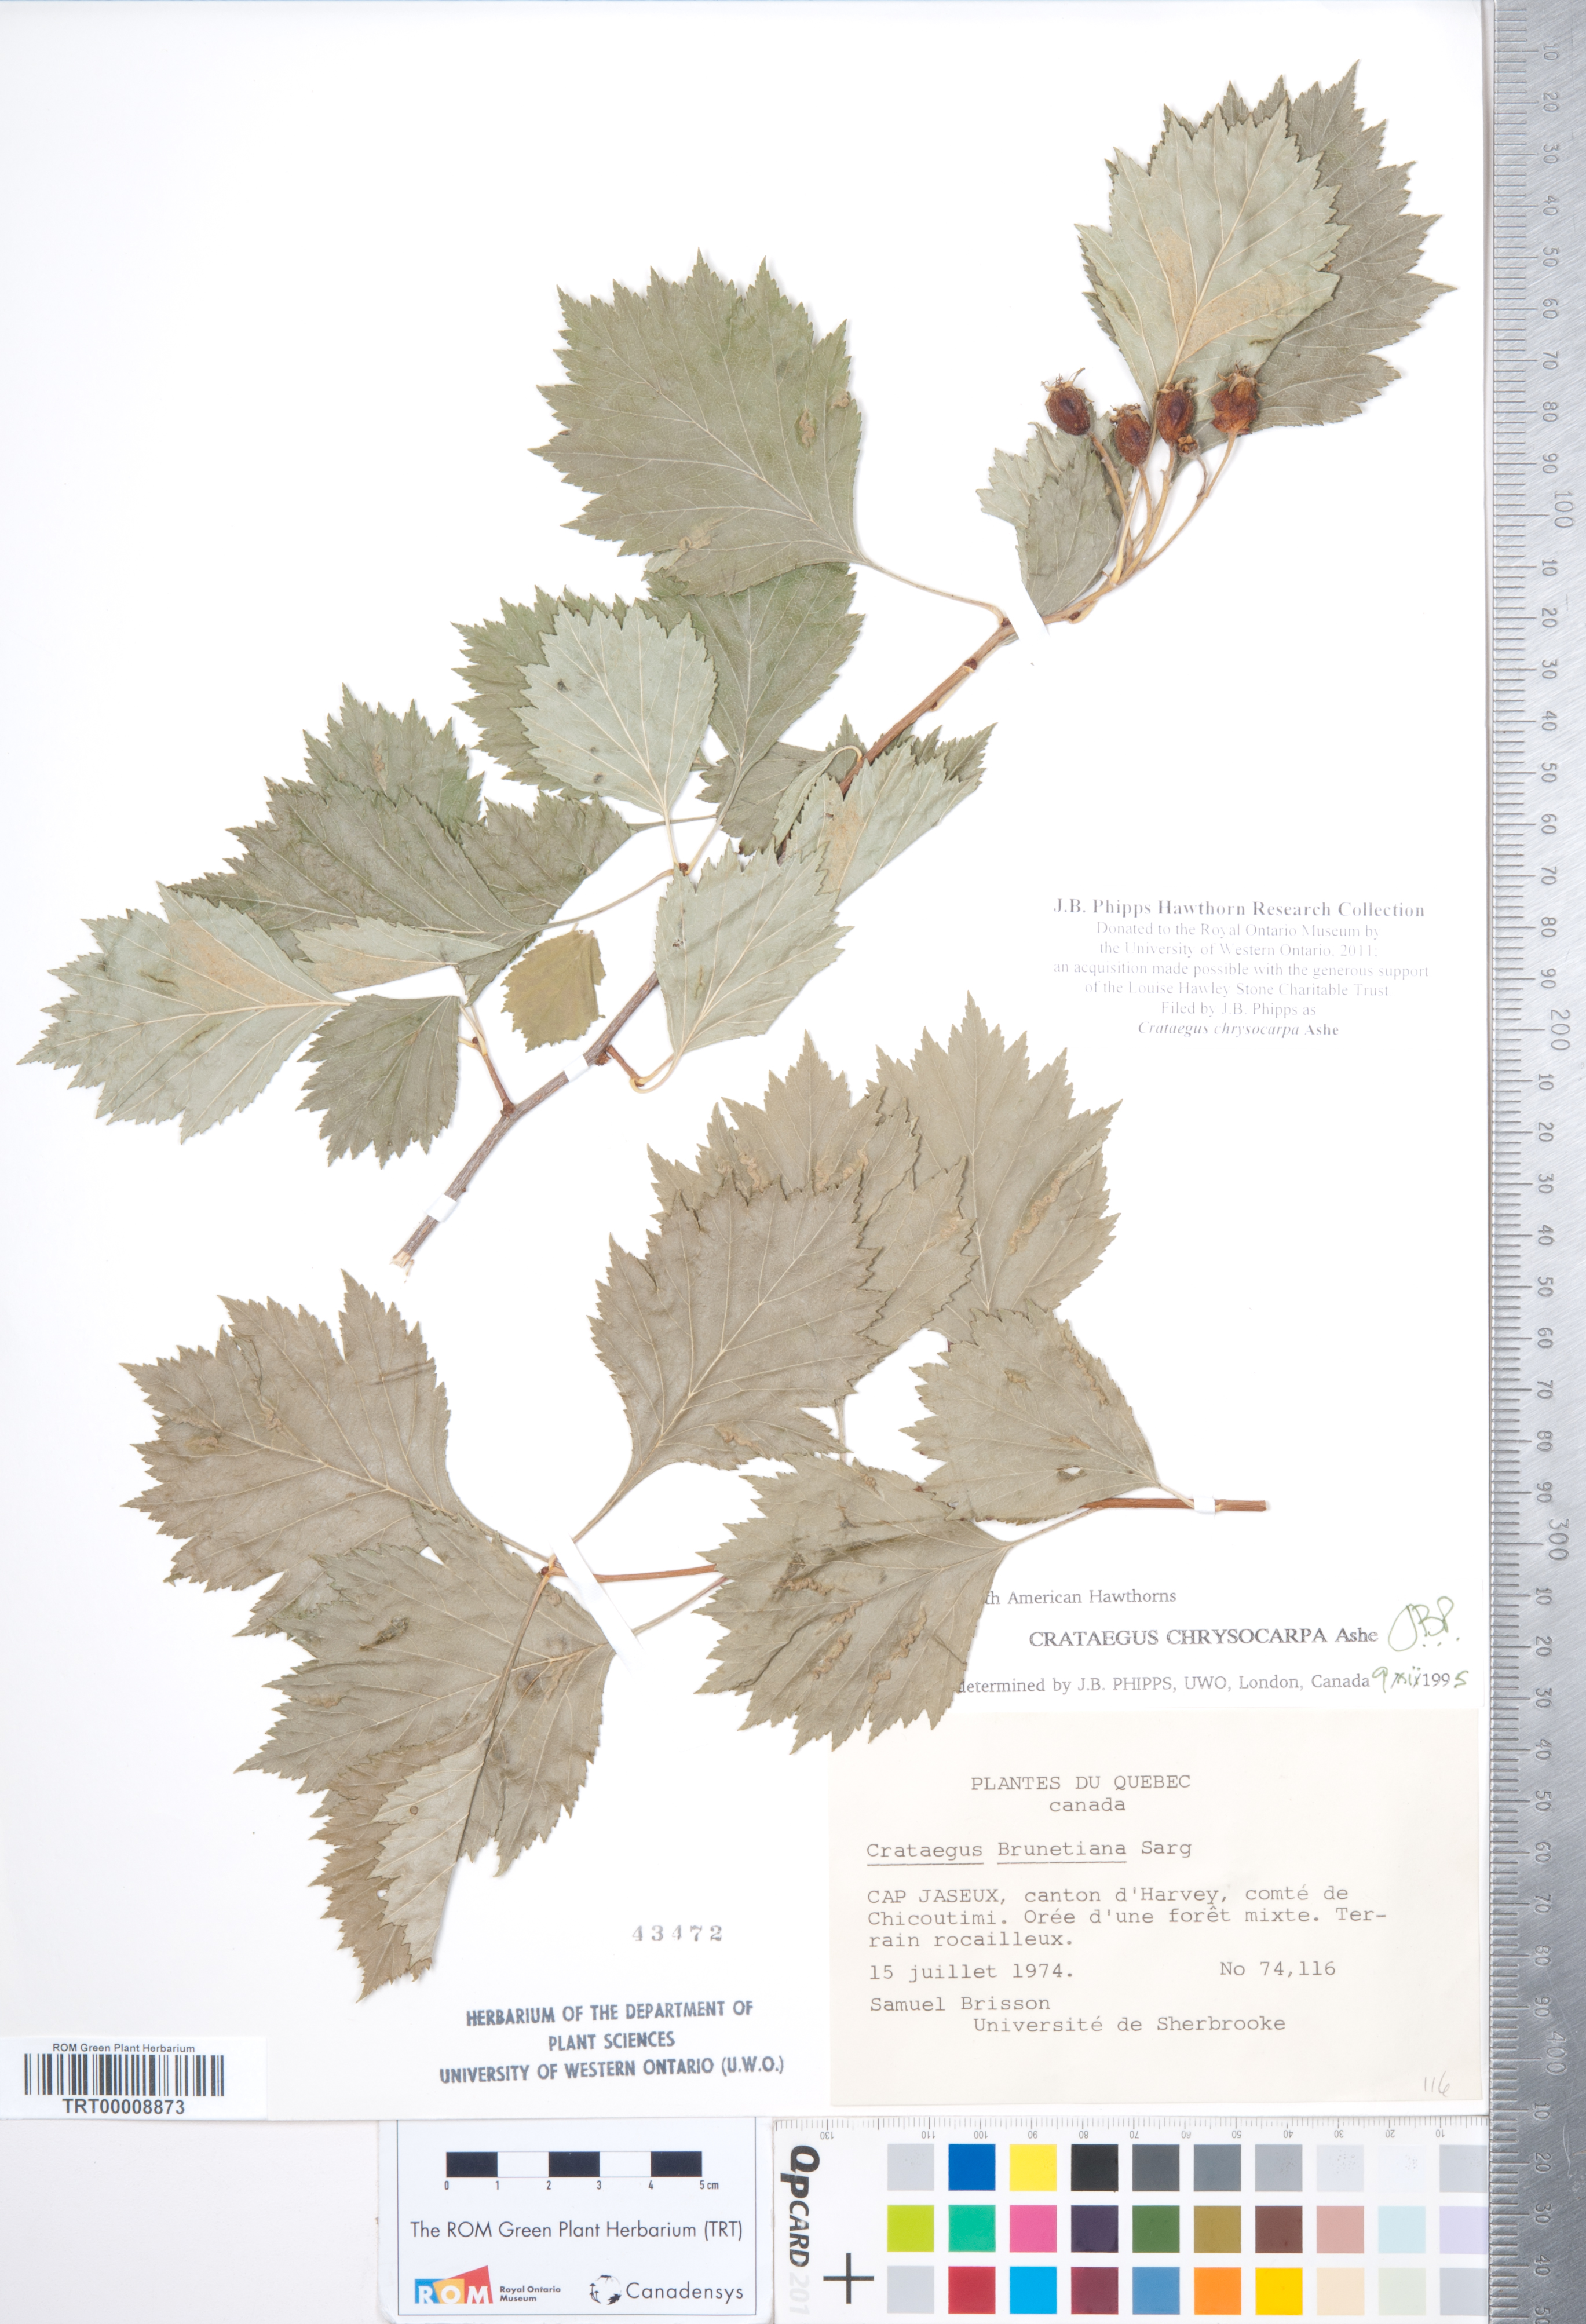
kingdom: Plantae
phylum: Tracheophyta
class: Magnoliopsida
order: Rosales
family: Rosaceae
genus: Crataegus
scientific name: Crataegus chrysocarpa
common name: Fire-berry hawthorn
